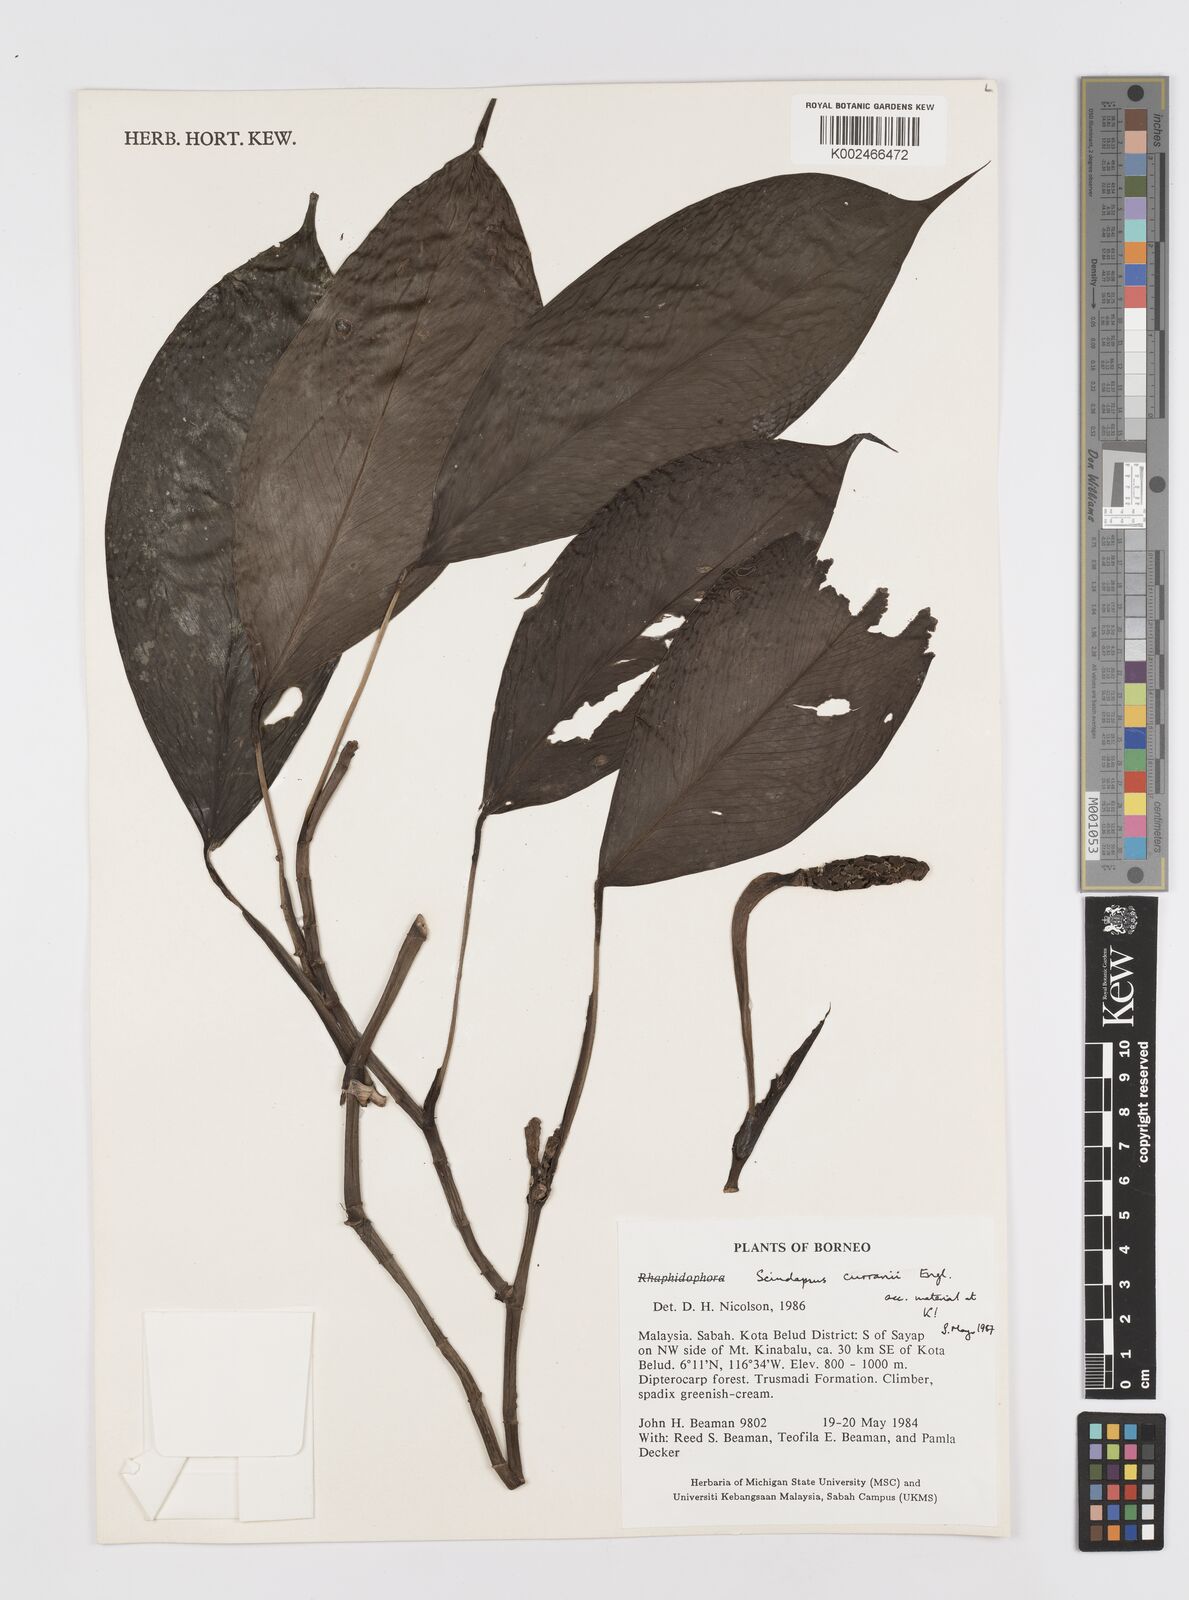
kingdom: Plantae
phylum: Tracheophyta
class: Liliopsida
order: Alismatales
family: Araceae
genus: Scindapsus
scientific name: Scindapsus curranii
